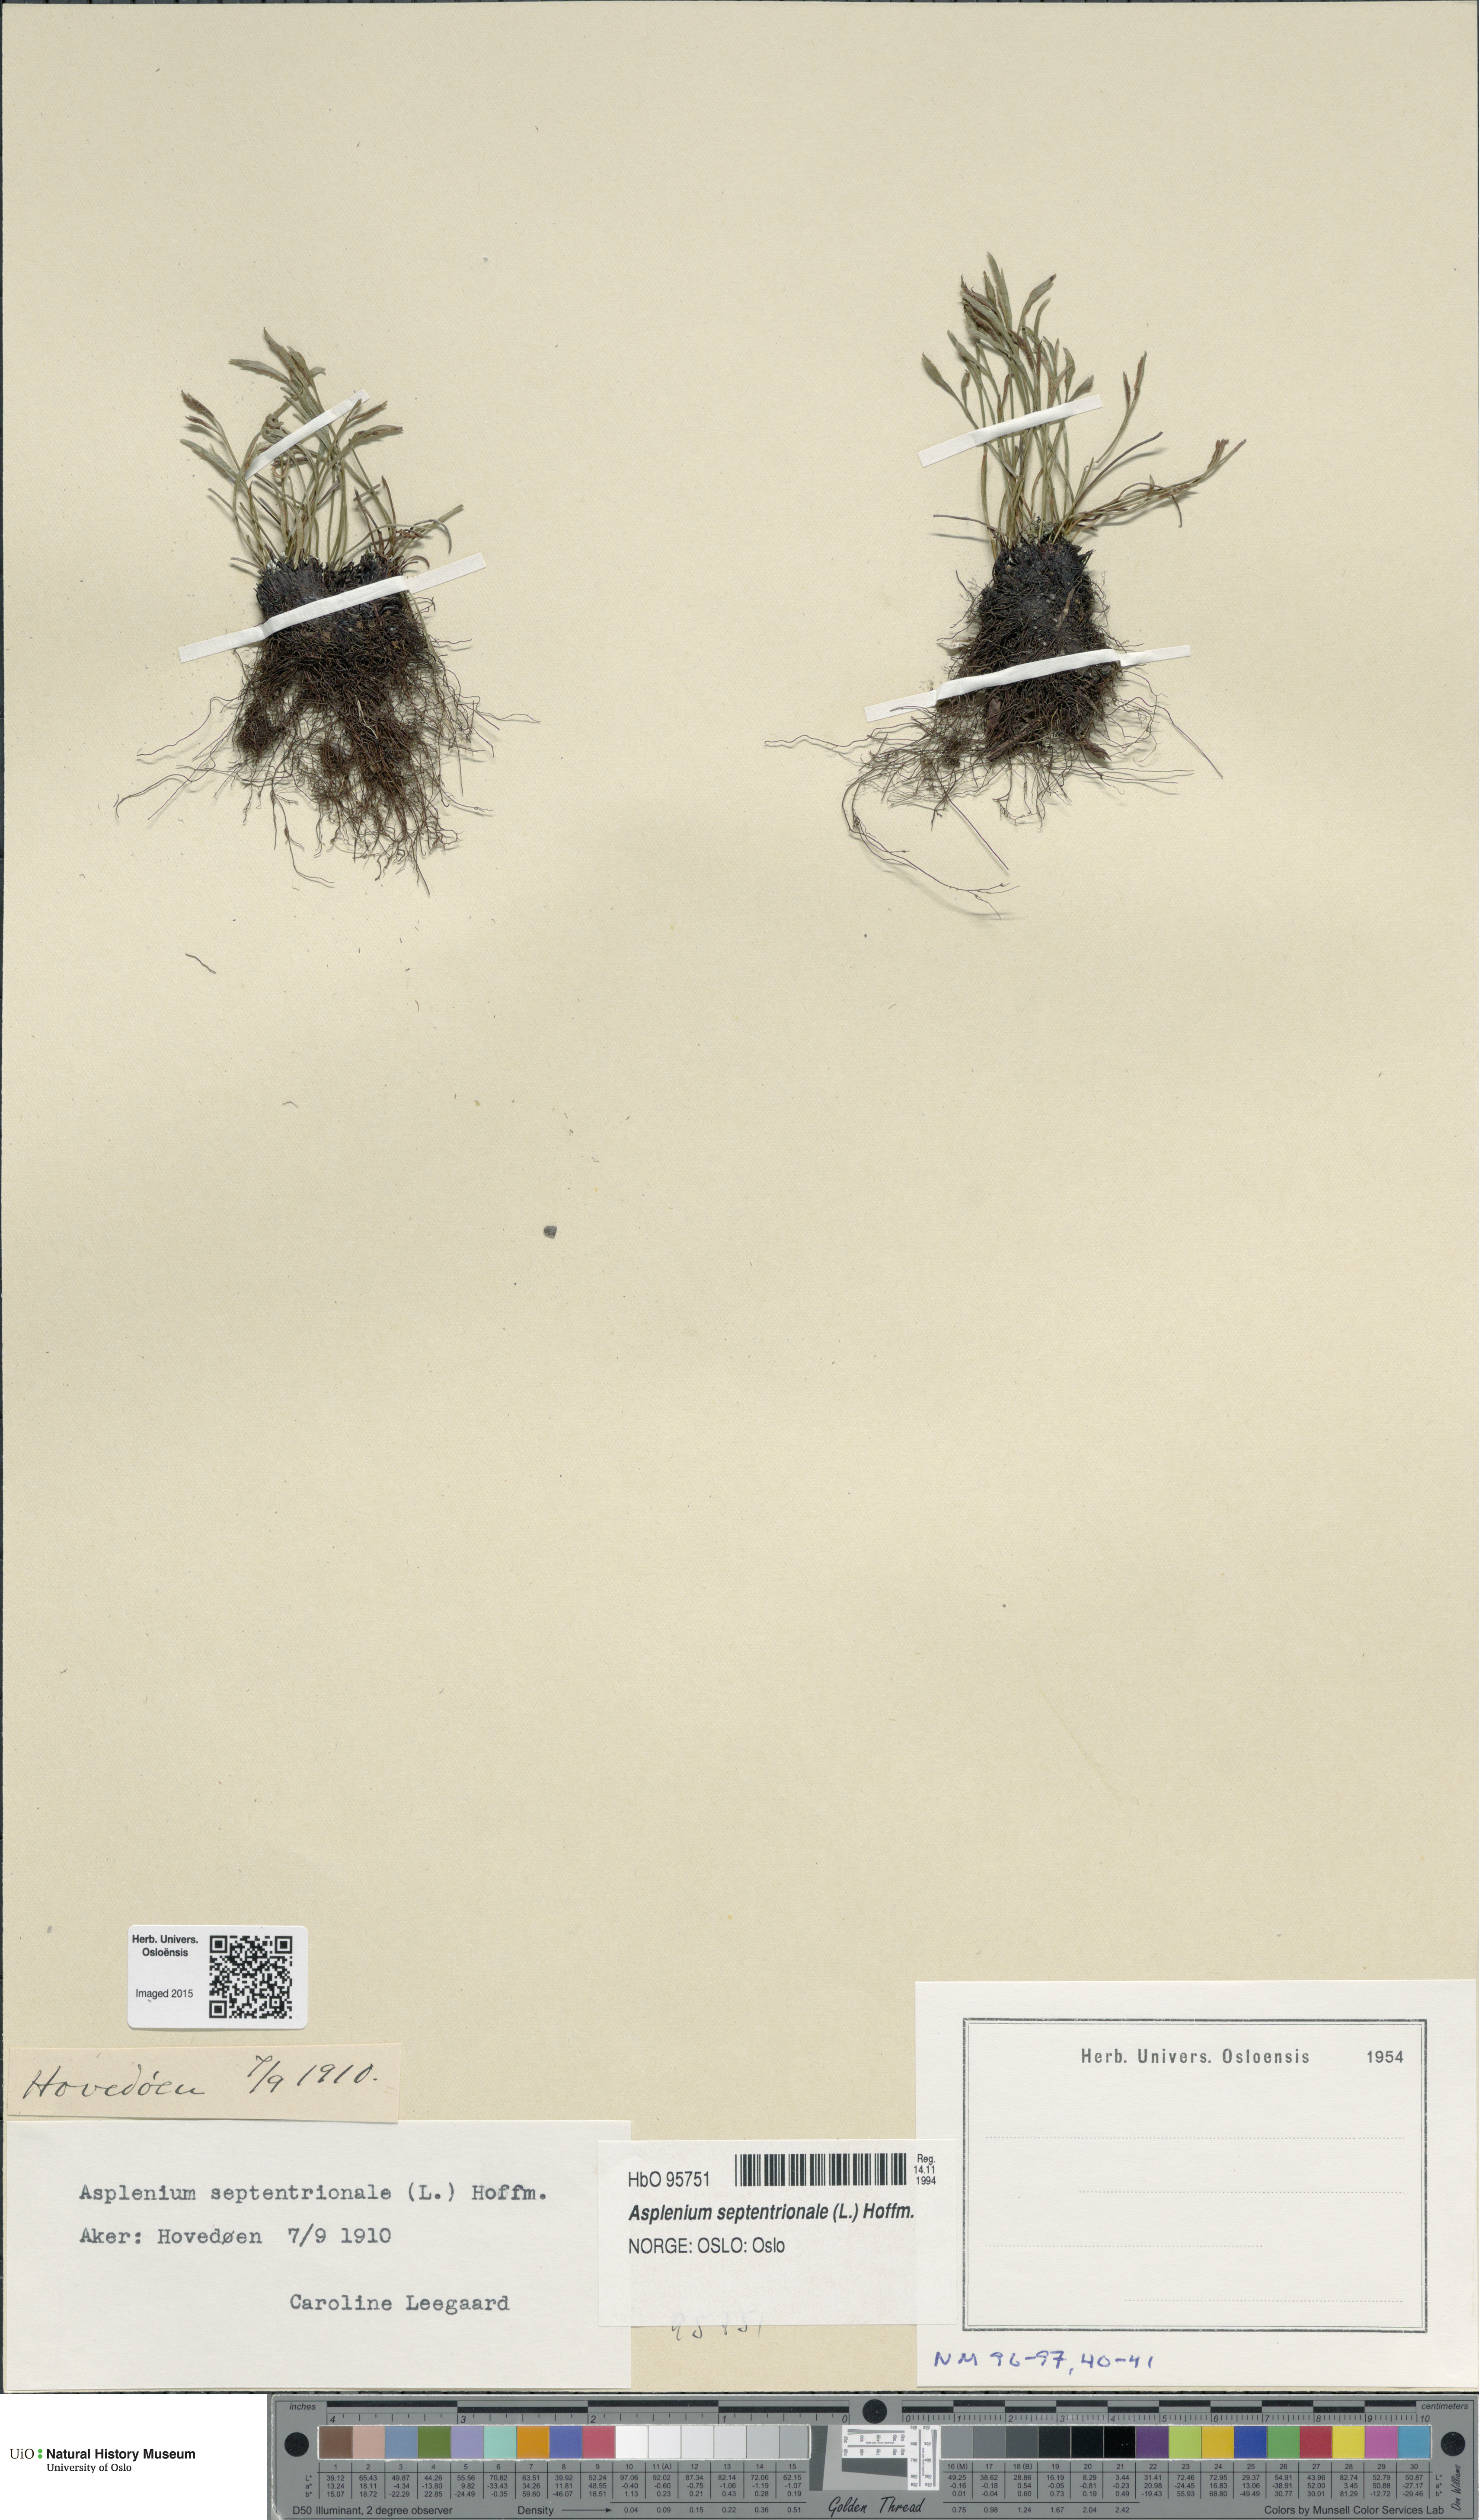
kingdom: Plantae
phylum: Tracheophyta
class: Polypodiopsida
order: Polypodiales
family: Aspleniaceae
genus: Asplenium
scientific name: Asplenium septentrionale
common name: Forked spleenwort
